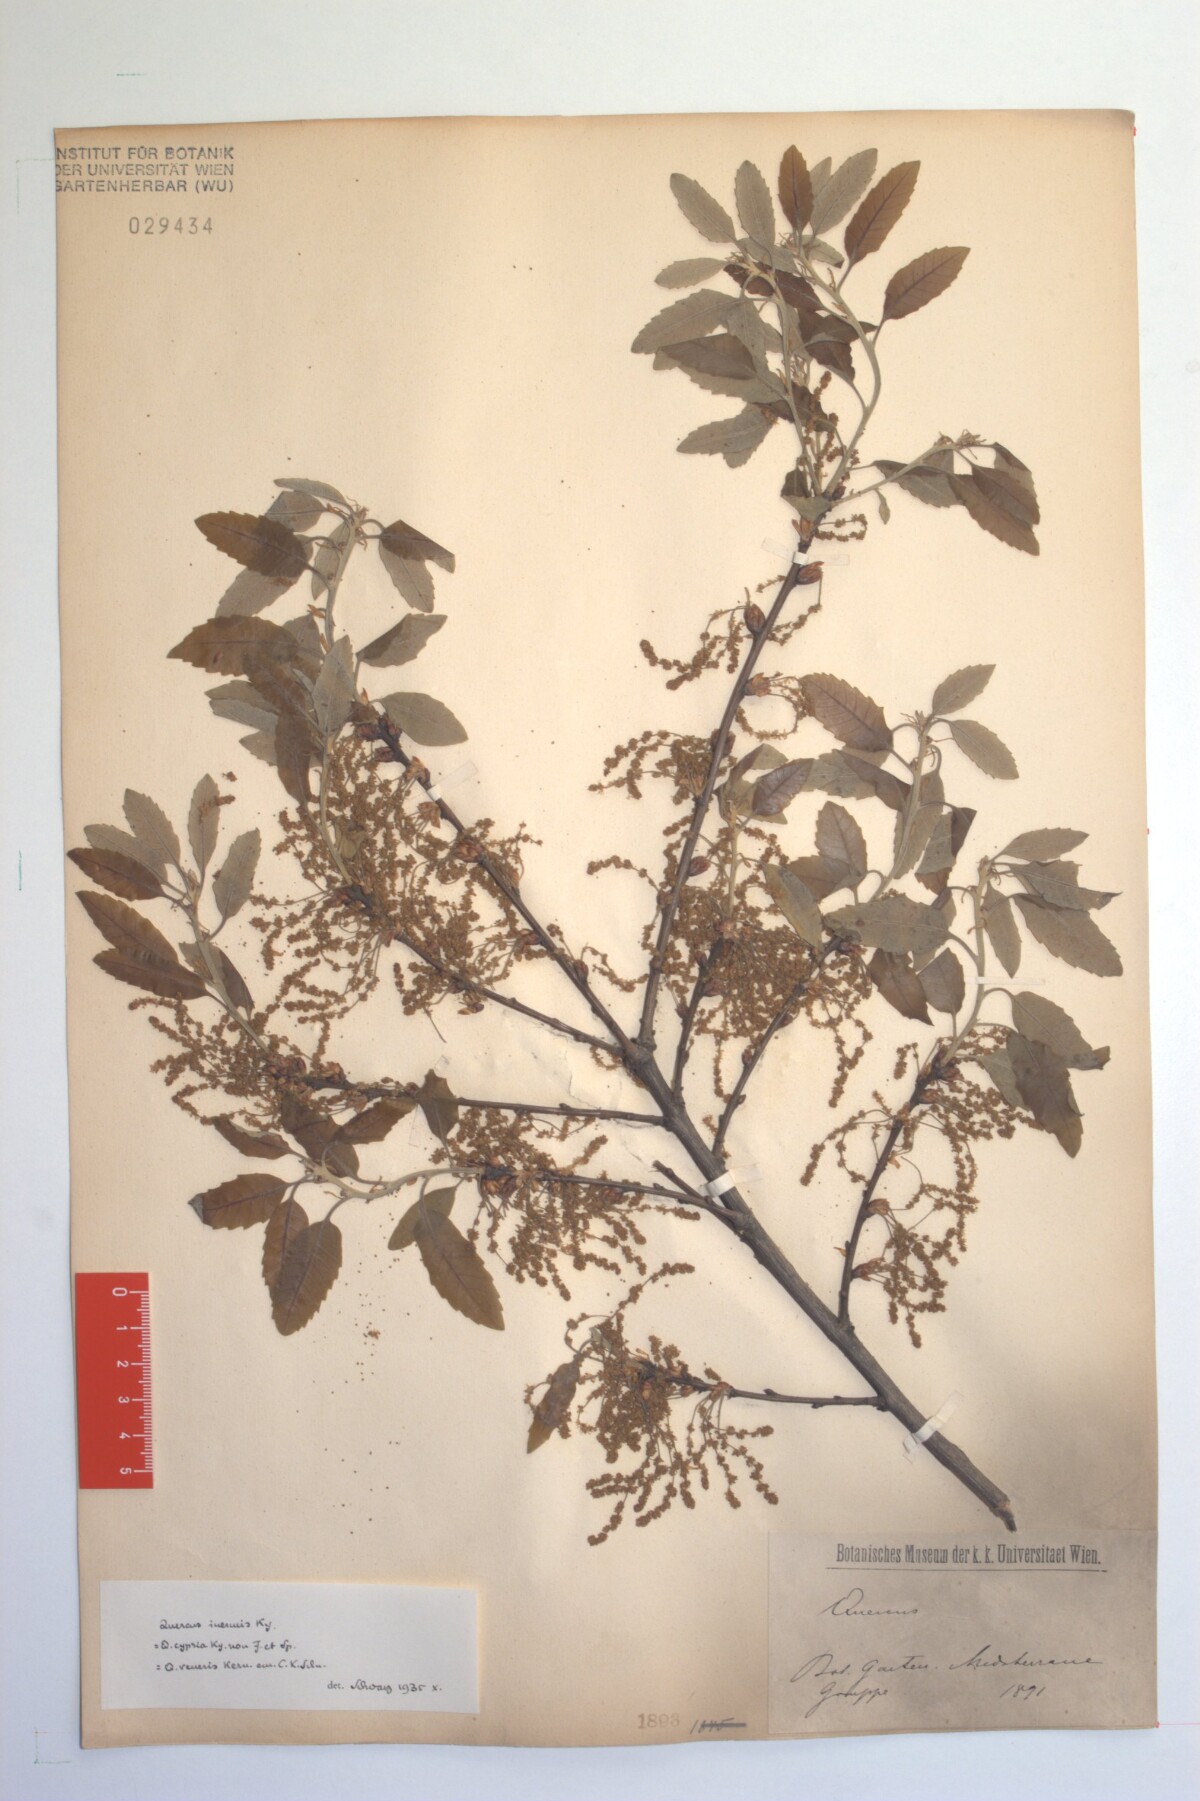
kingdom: Plantae
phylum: Tracheophyta
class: Magnoliopsida
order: Fagales
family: Fagaceae
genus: Quercus
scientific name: Quercus infectoria
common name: Aleppo oak
